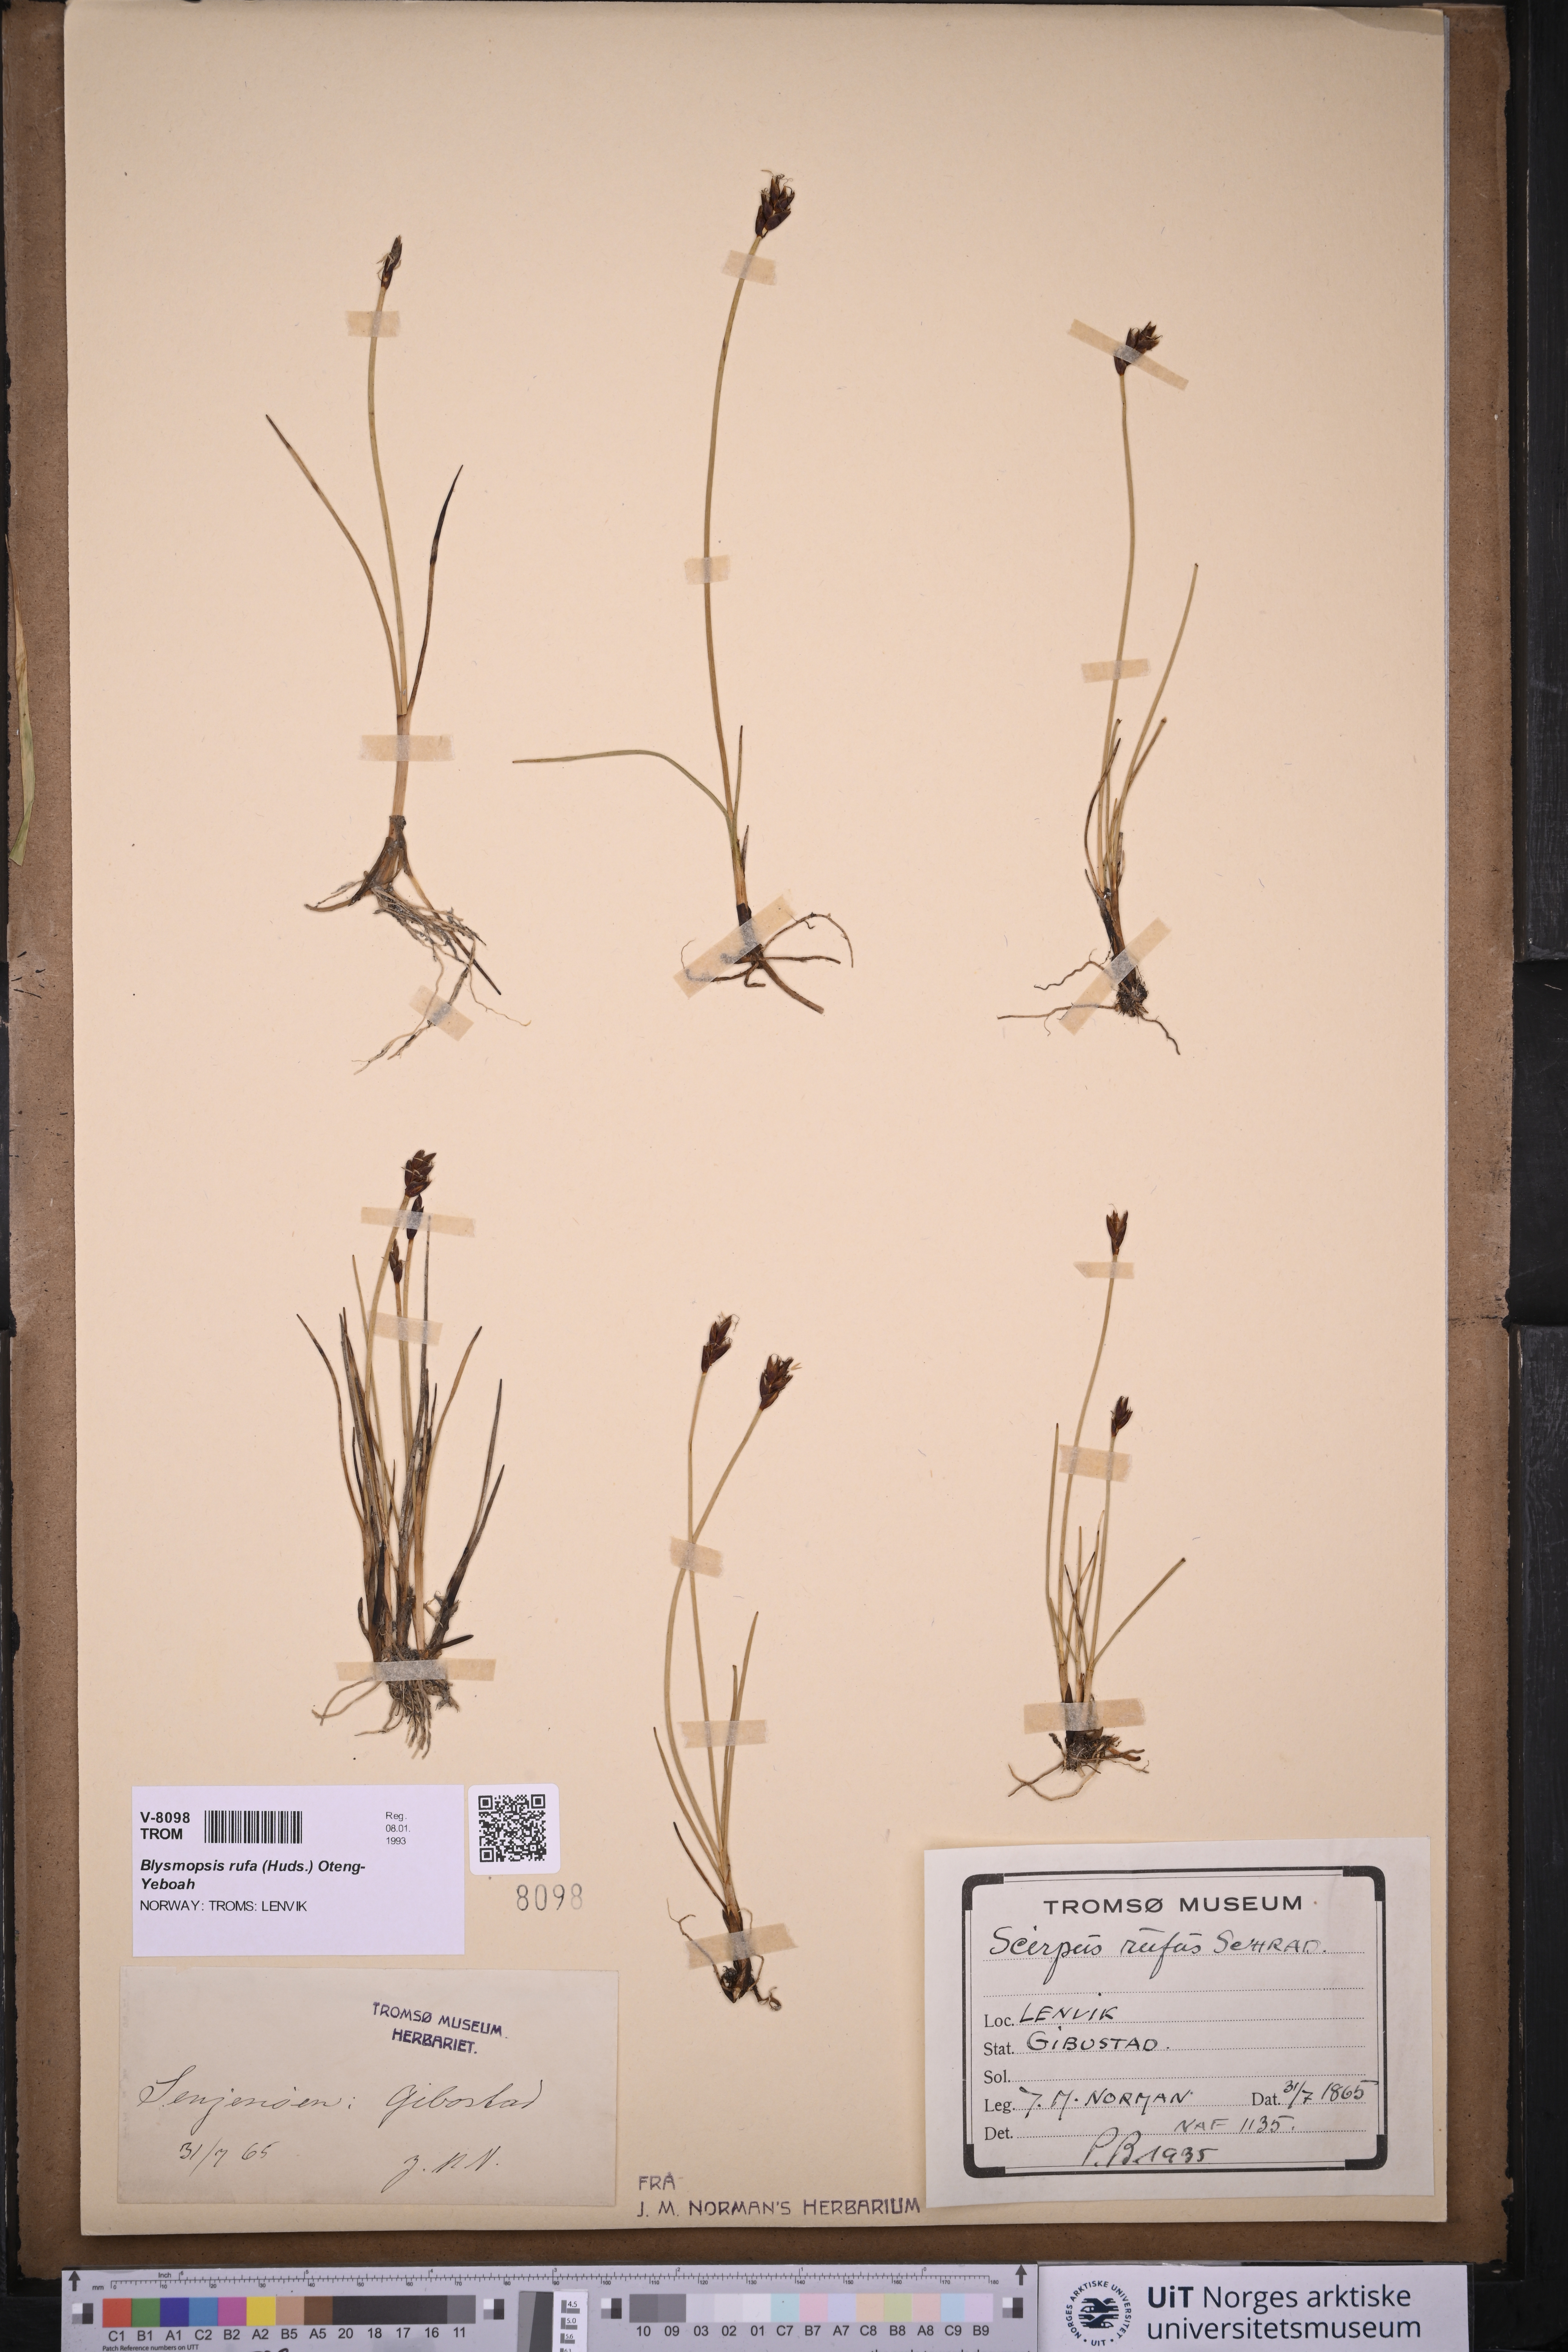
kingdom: Plantae
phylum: Tracheophyta
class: Liliopsida
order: Poales
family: Cyperaceae
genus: Blysmus
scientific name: Blysmus rufus
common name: Saltmarsh flat-sedge
